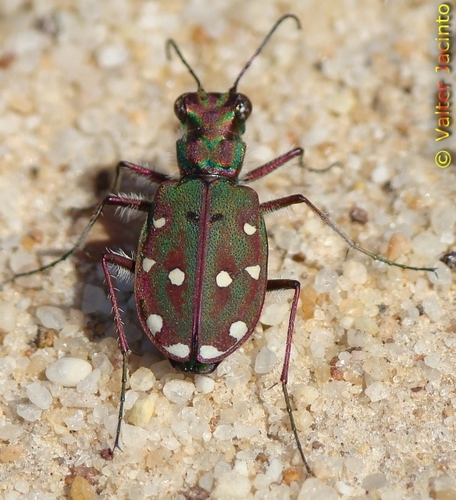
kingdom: Animalia
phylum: Arthropoda
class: Insecta
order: Coleoptera
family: Carabidae
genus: Cicindela
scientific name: Cicindela maroccana
